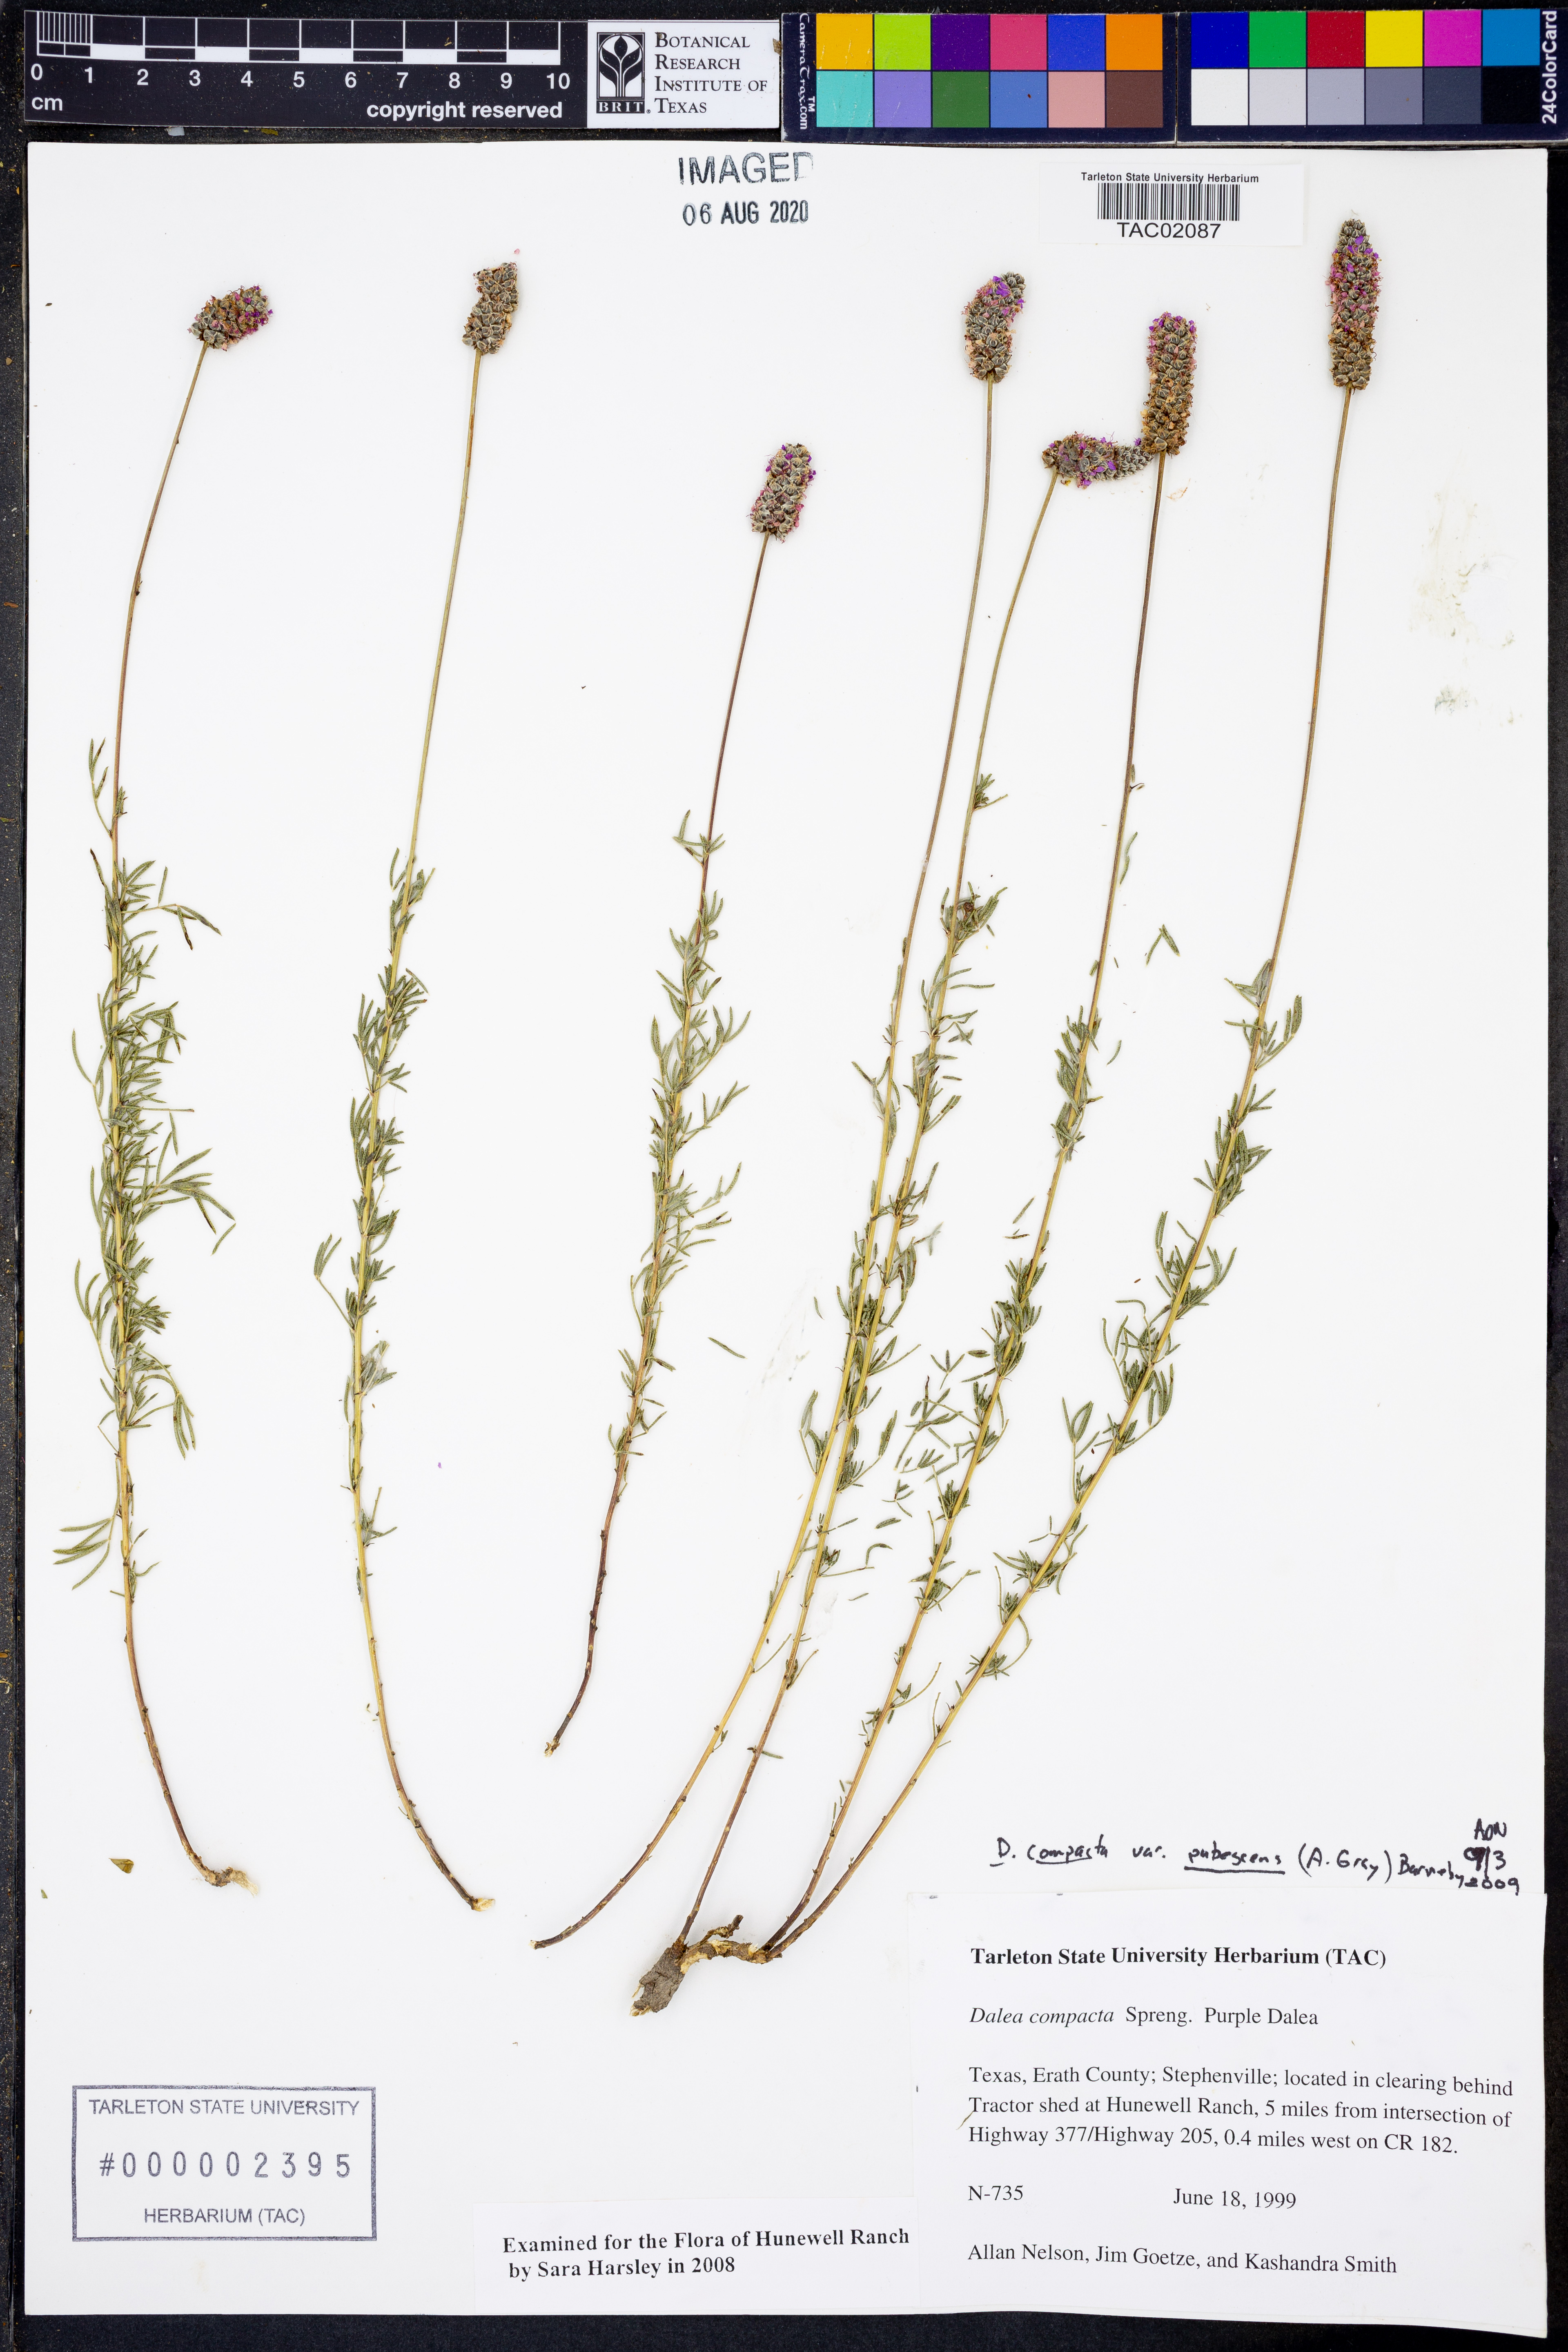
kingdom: Plantae
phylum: Tracheophyta
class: Magnoliopsida
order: Fabales
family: Fabaceae
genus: Dalea
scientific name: Dalea compacta
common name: Compact prairie-clover
